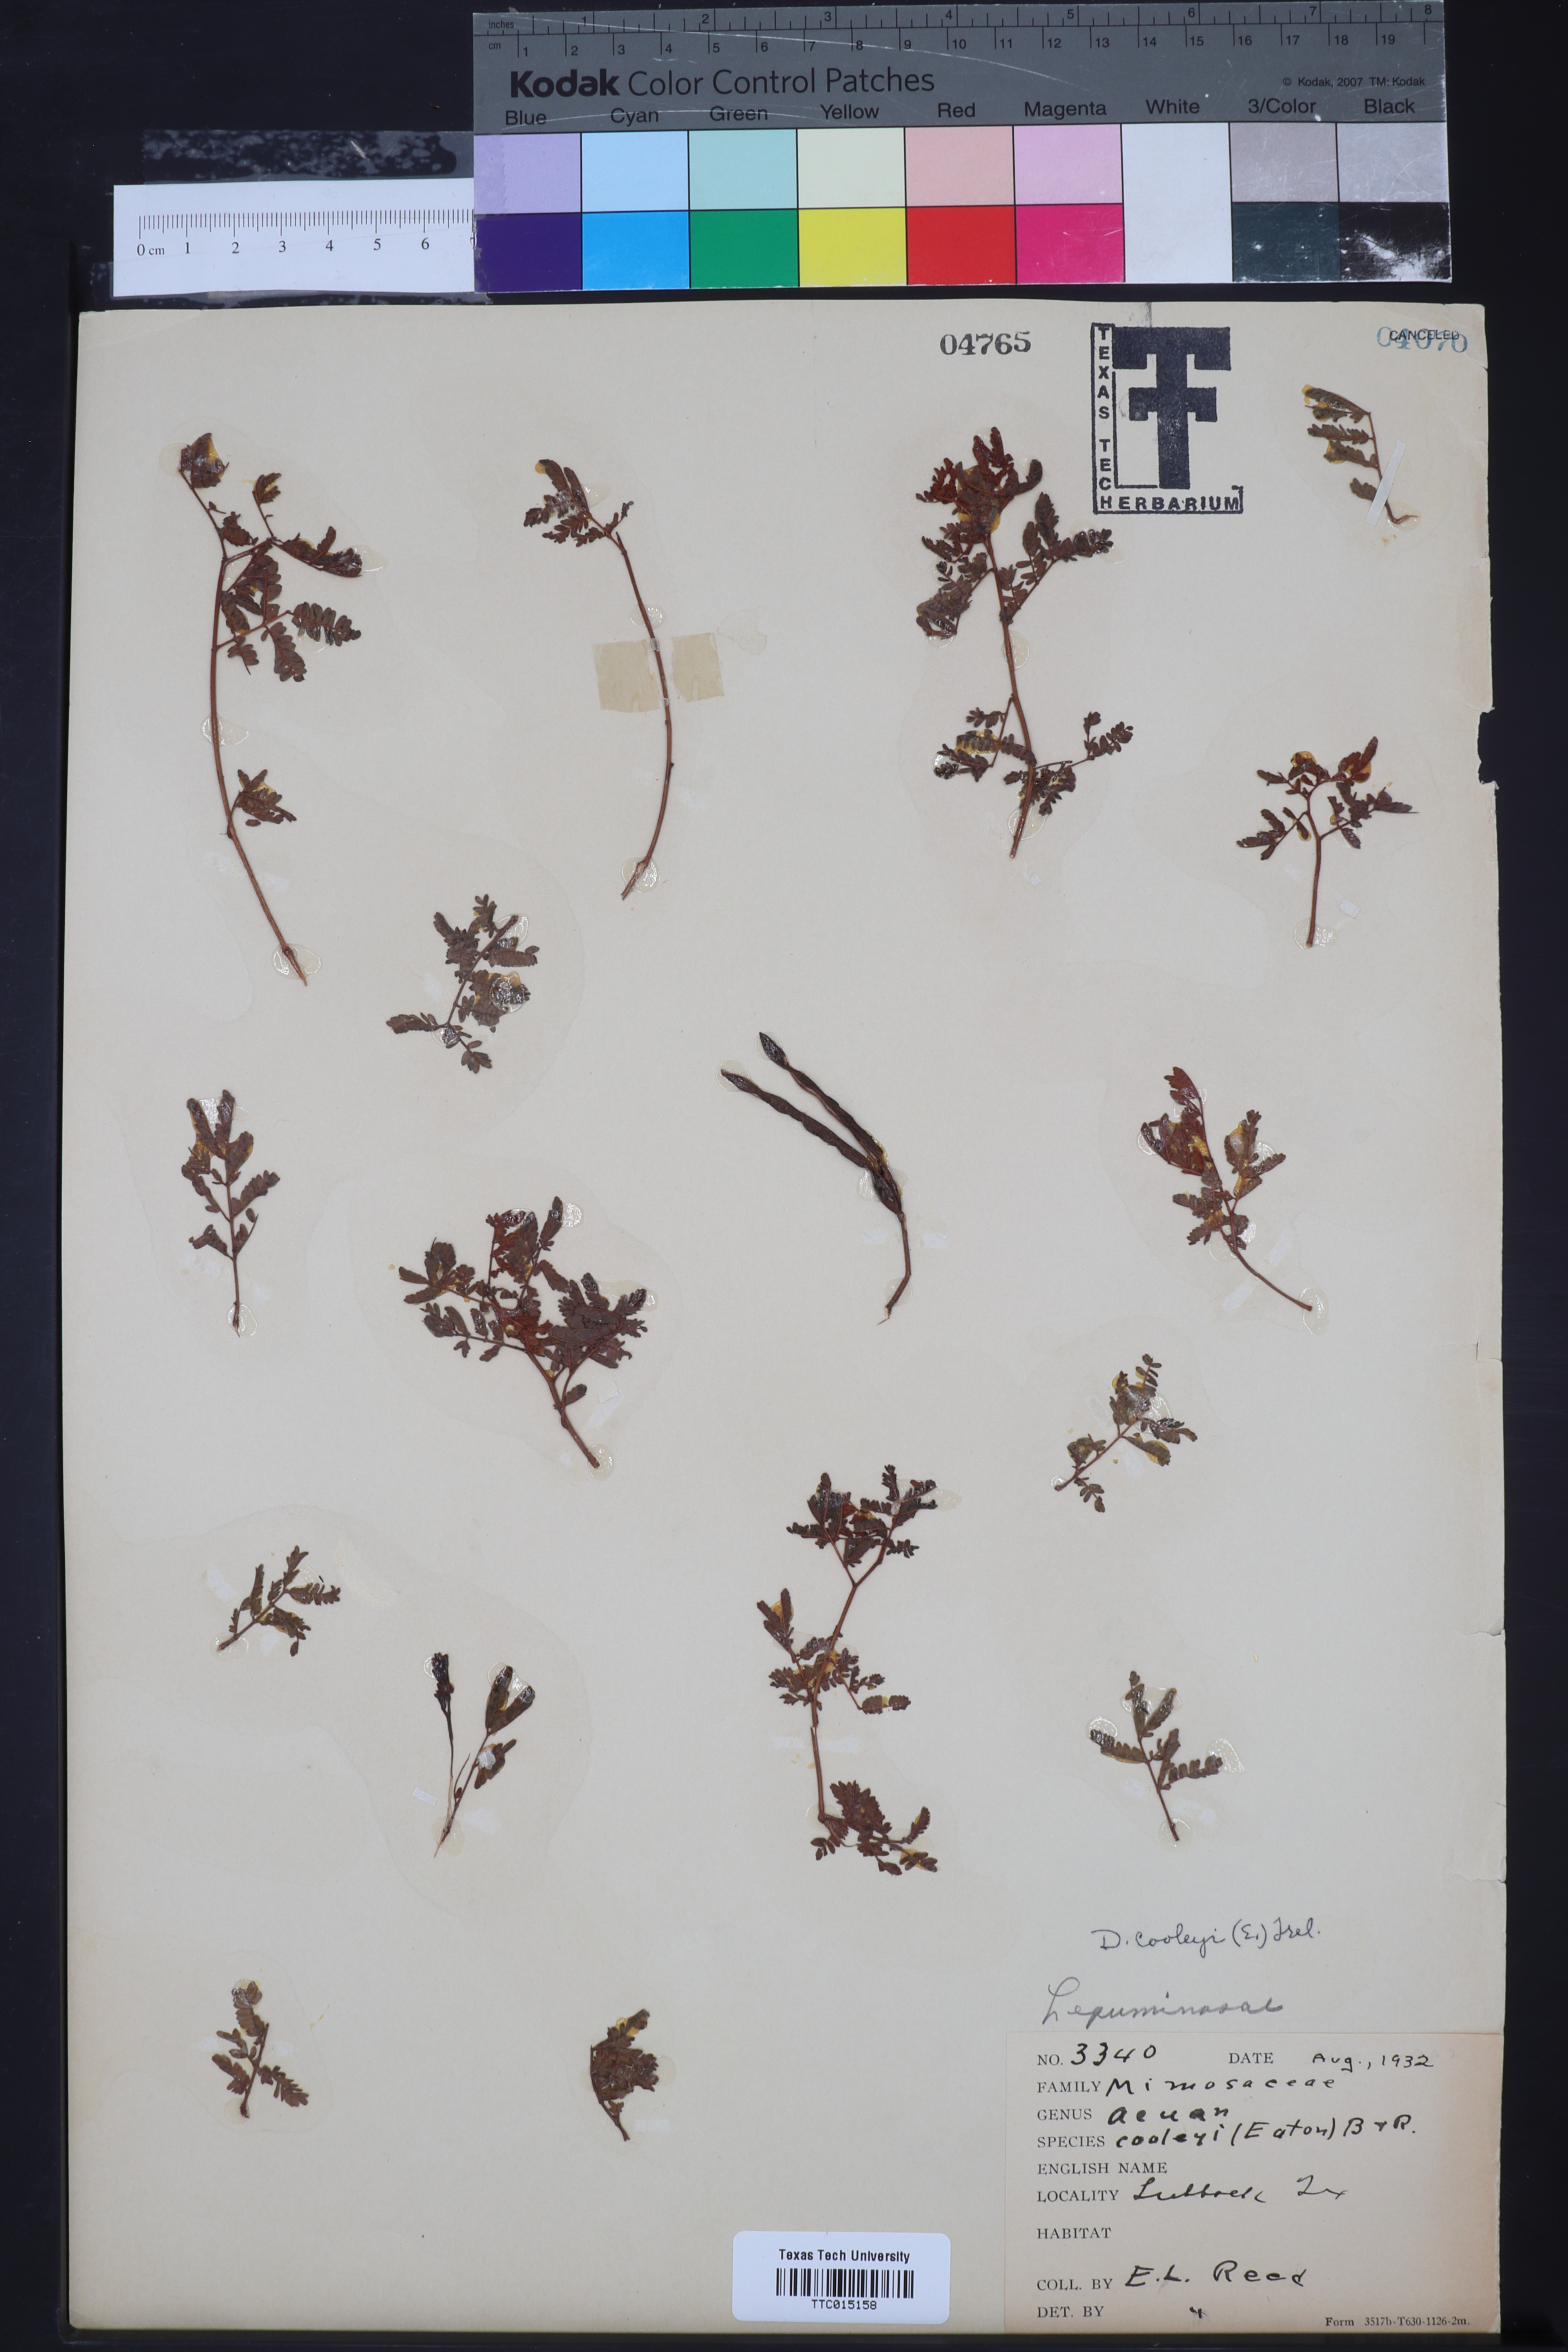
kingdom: Plantae
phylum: Tracheophyta
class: Magnoliopsida
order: Fabales
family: Fabaceae
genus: Desmanthus
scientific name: Desmanthus cooleyi
